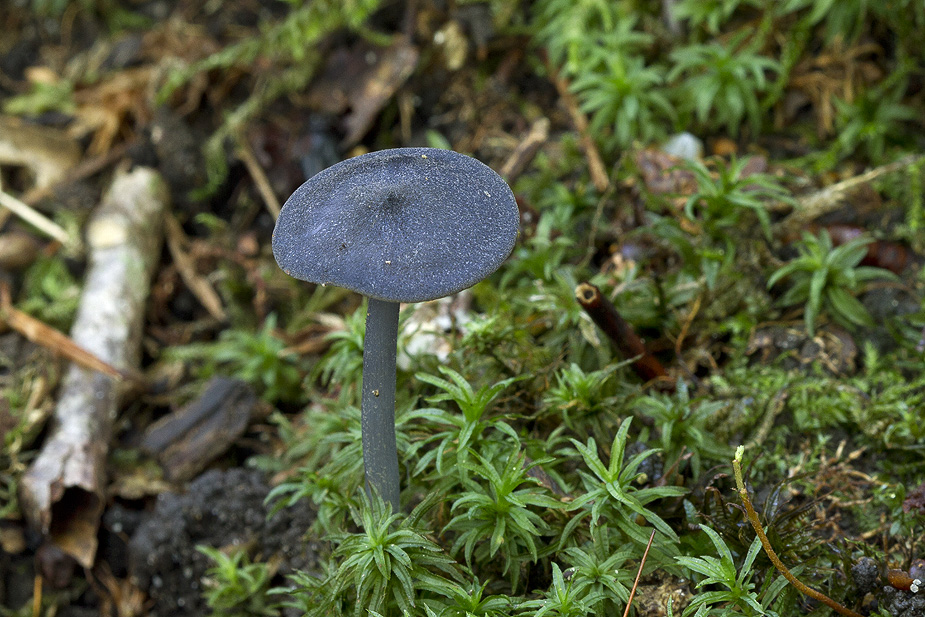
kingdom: Fungi
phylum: Basidiomycota
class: Agaricomycetes
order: Agaricales
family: Entolomataceae
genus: Entoloma
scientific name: Entoloma erhardii
